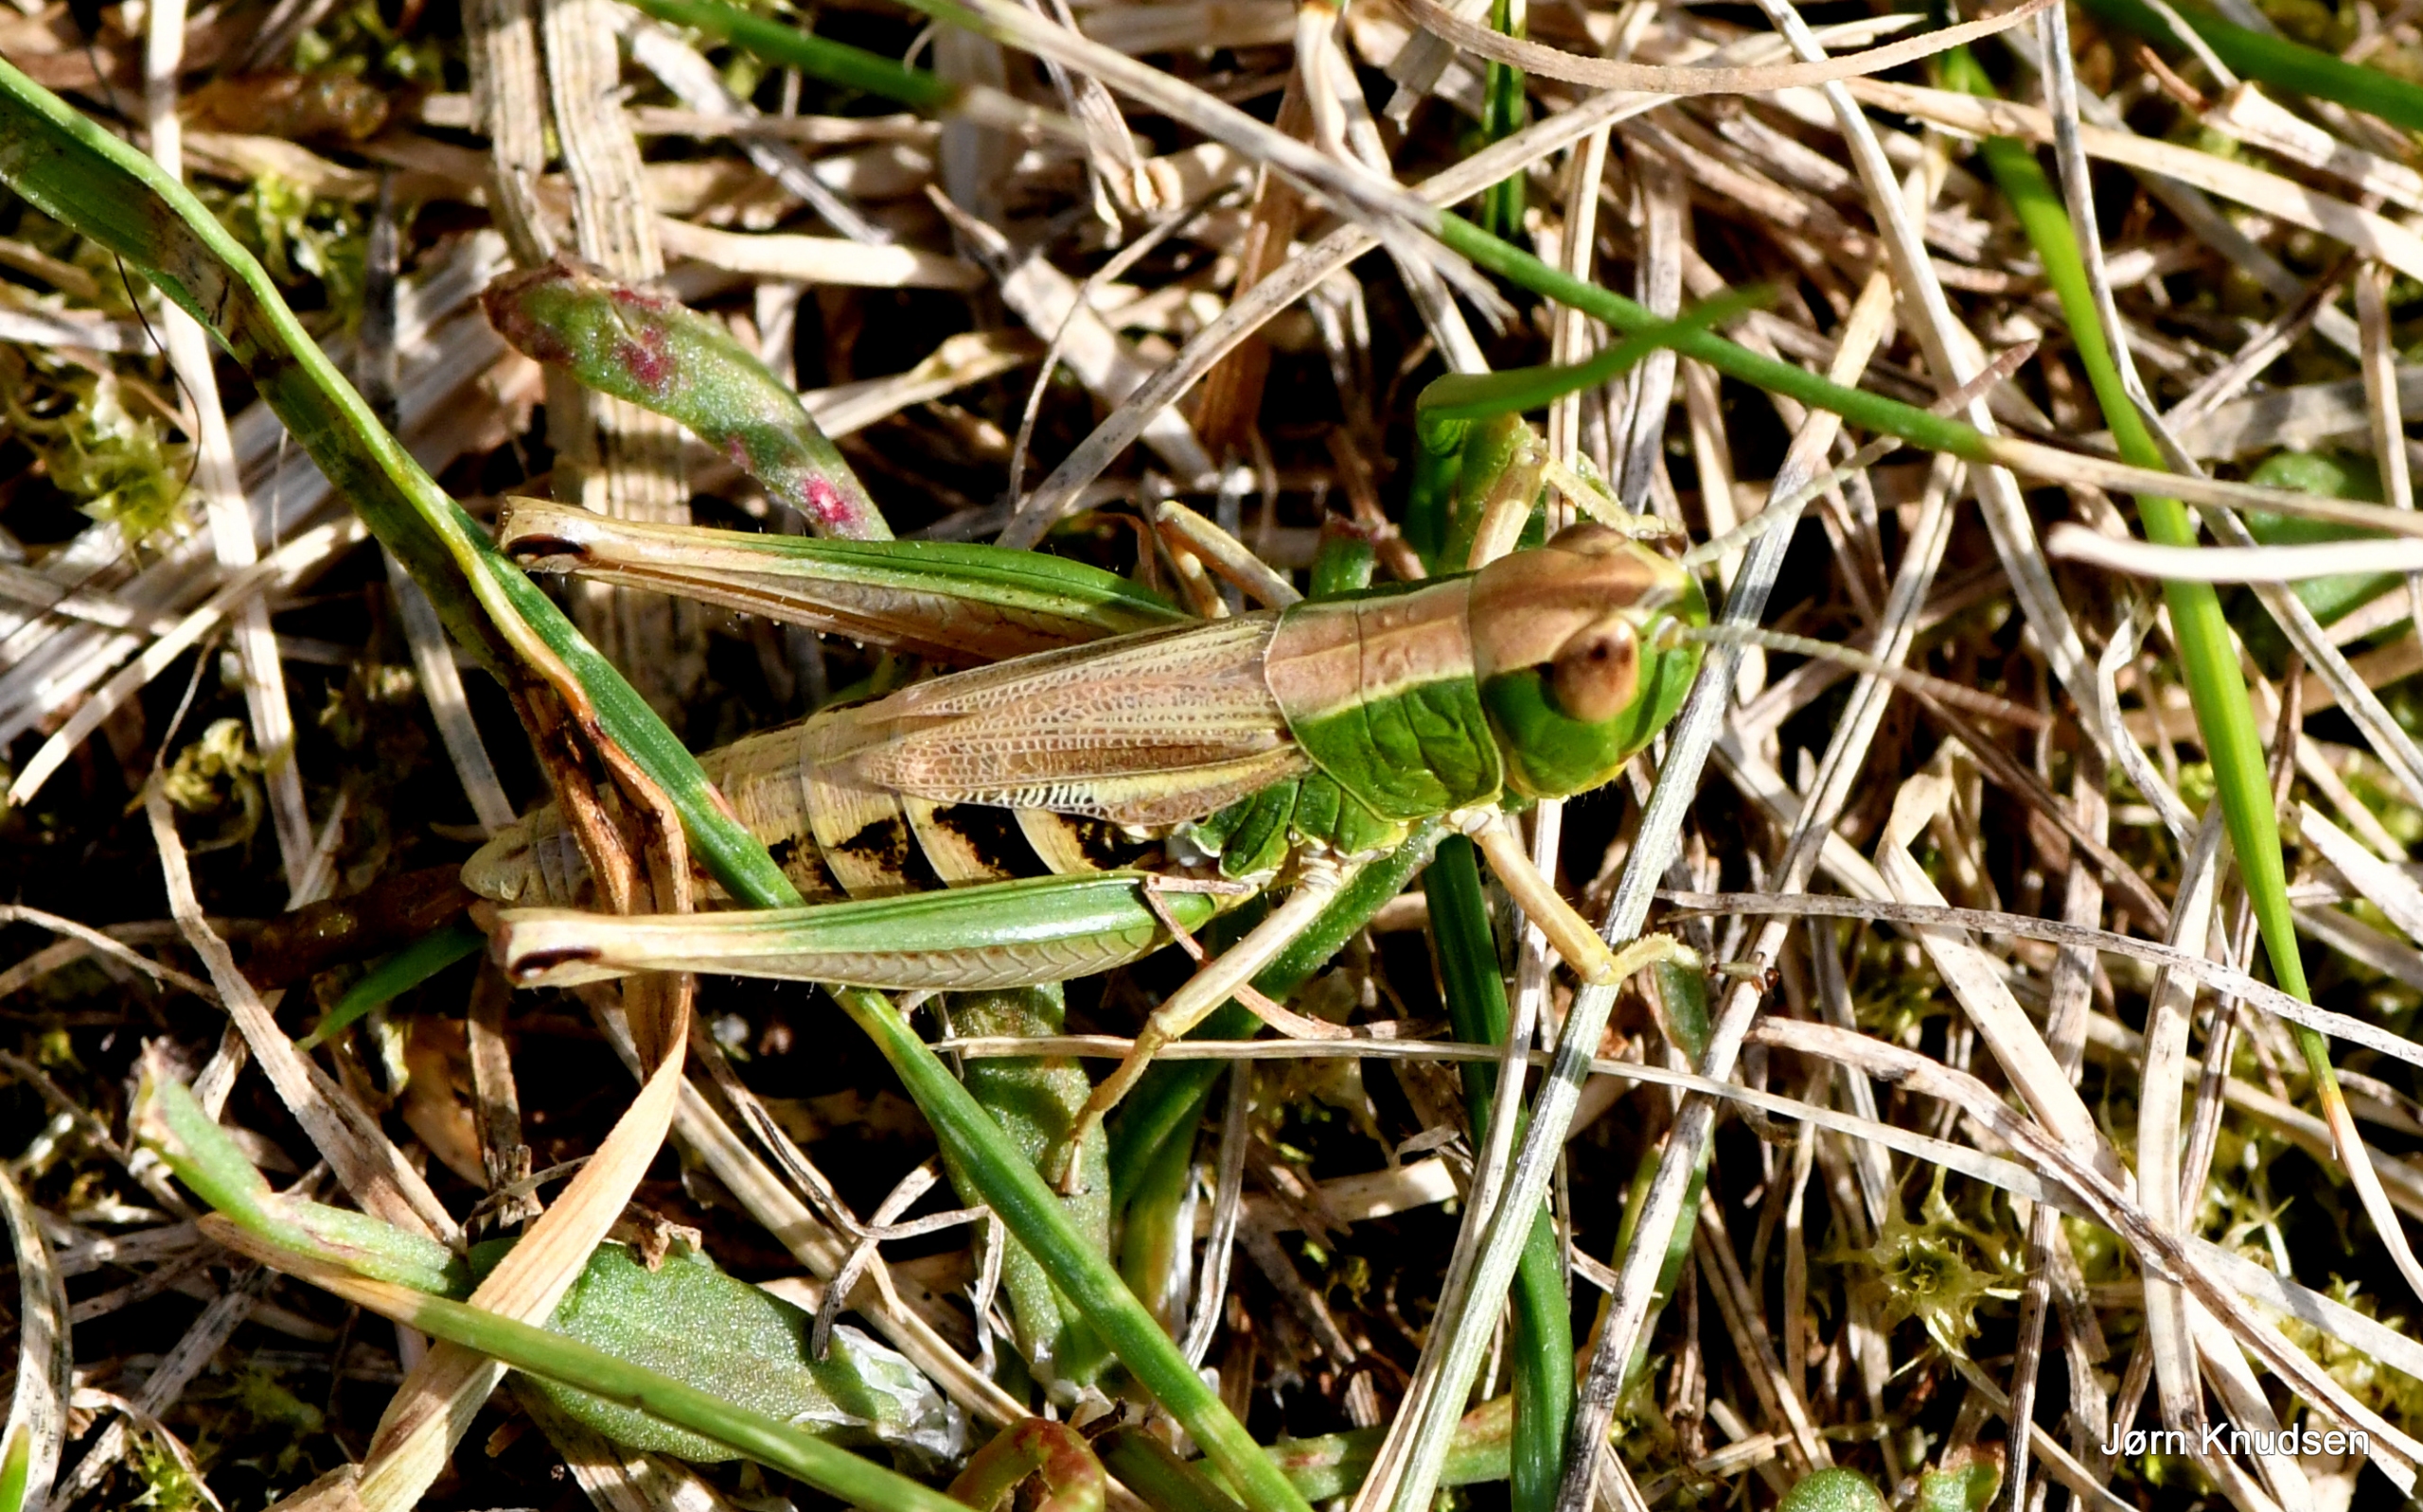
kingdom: Animalia
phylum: Arthropoda
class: Insecta
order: Orthoptera
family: Acrididae
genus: Pseudochorthippus
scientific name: Pseudochorthippus parallelus
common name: Enggræshoppe
